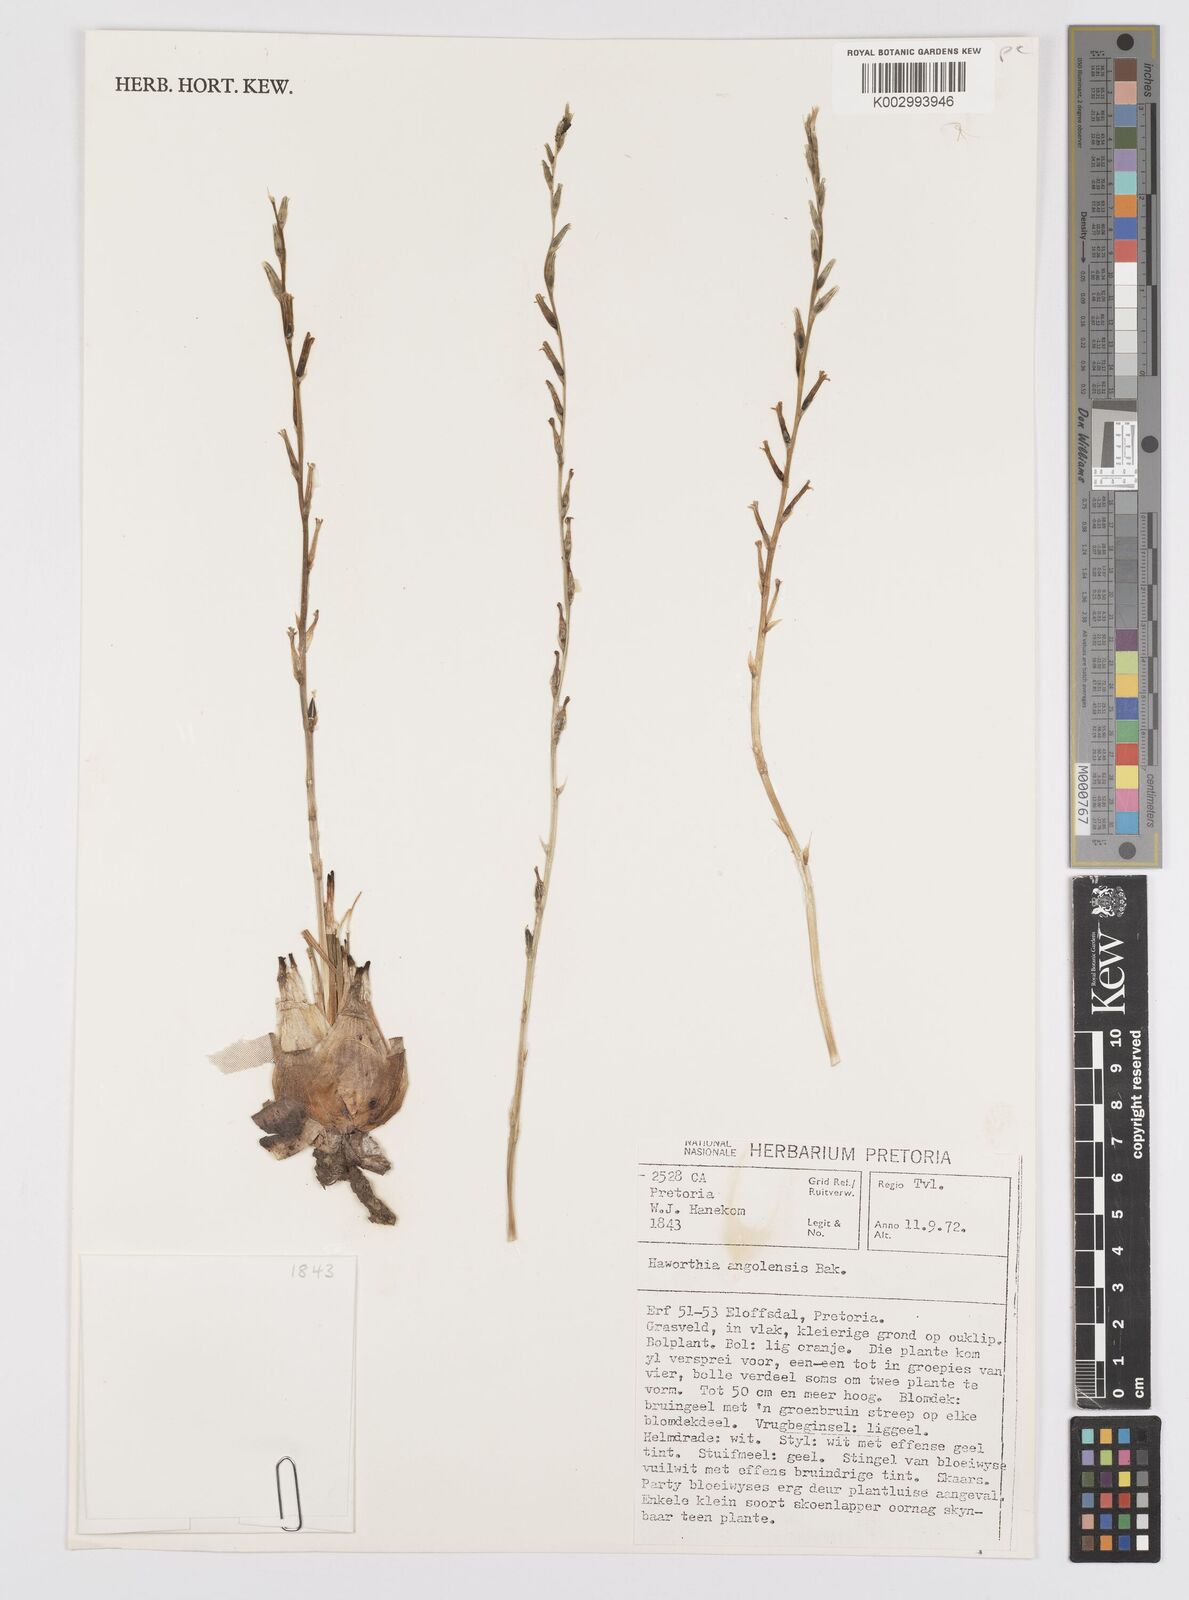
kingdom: Plantae
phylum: Tracheophyta
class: Liliopsida
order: Asparagales
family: Asphodelaceae
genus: Aloe
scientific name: Aloe welwitschii
